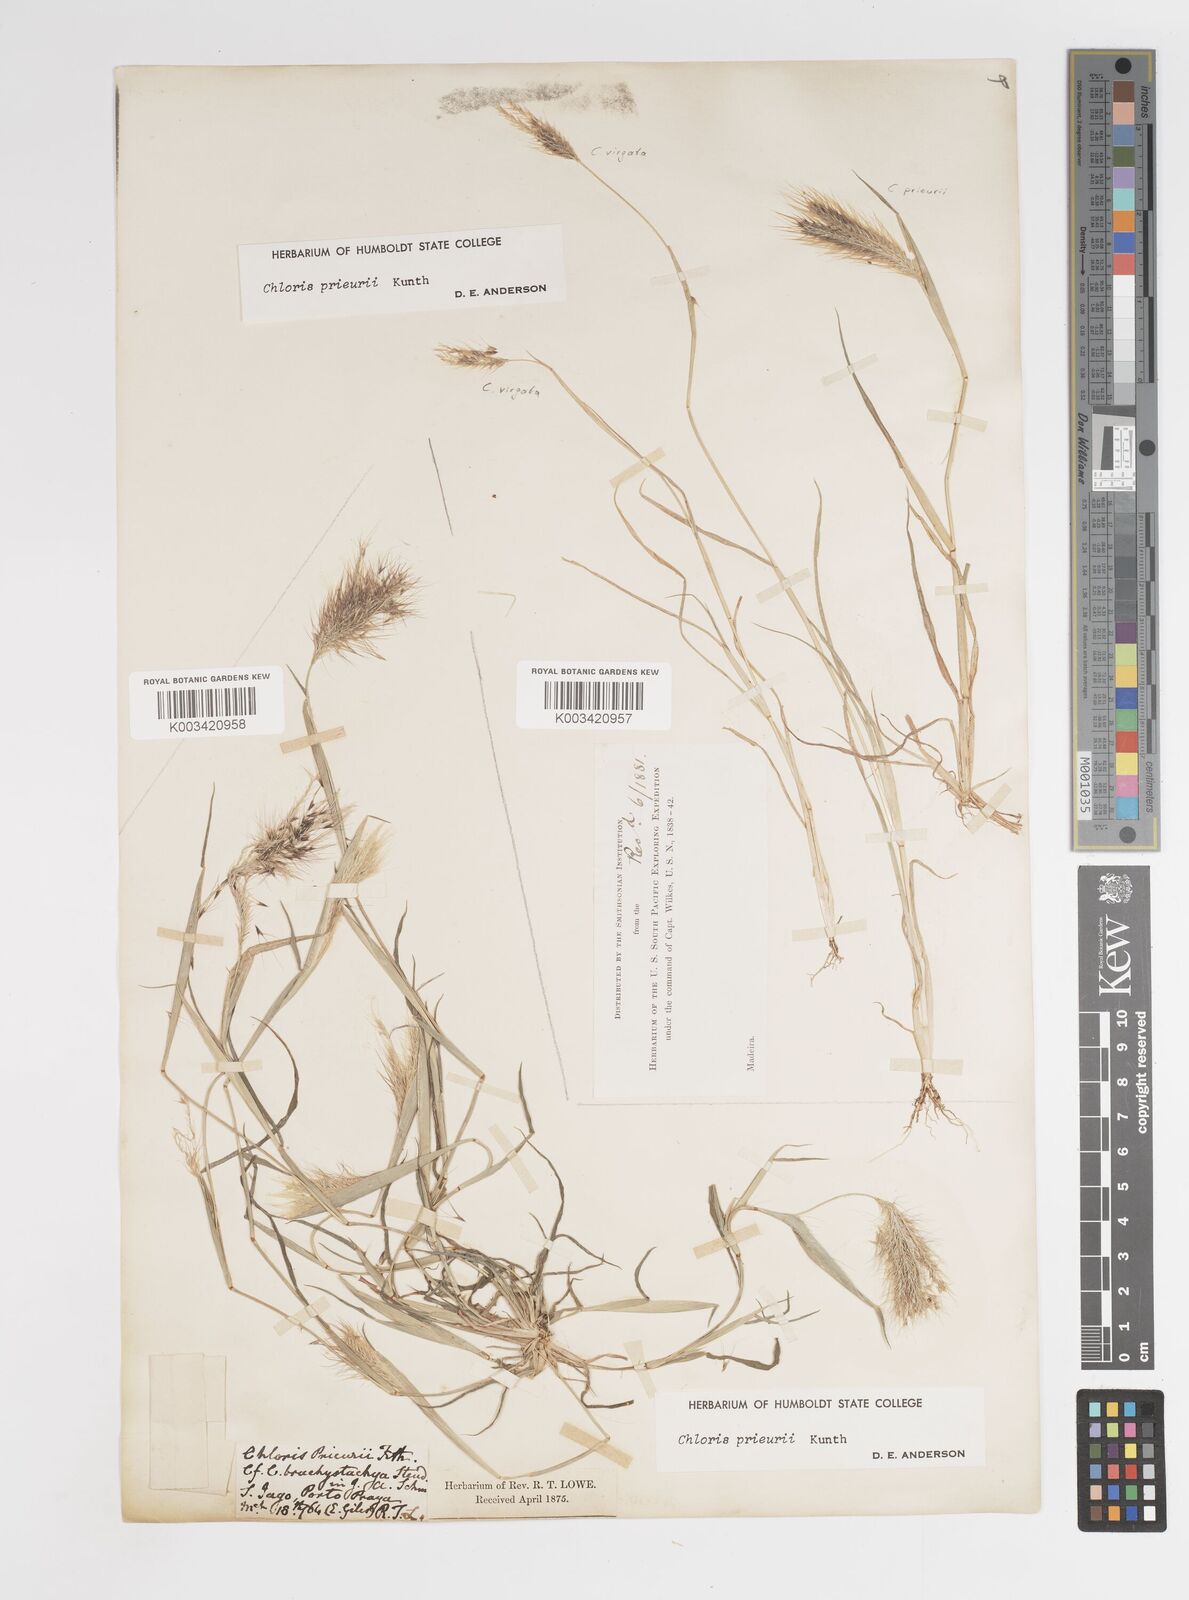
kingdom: Plantae
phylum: Tracheophyta
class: Liliopsida
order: Poales
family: Poaceae
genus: Enteropogon
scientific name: Enteropogon prieurii
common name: Prieur's umbrellagrass
